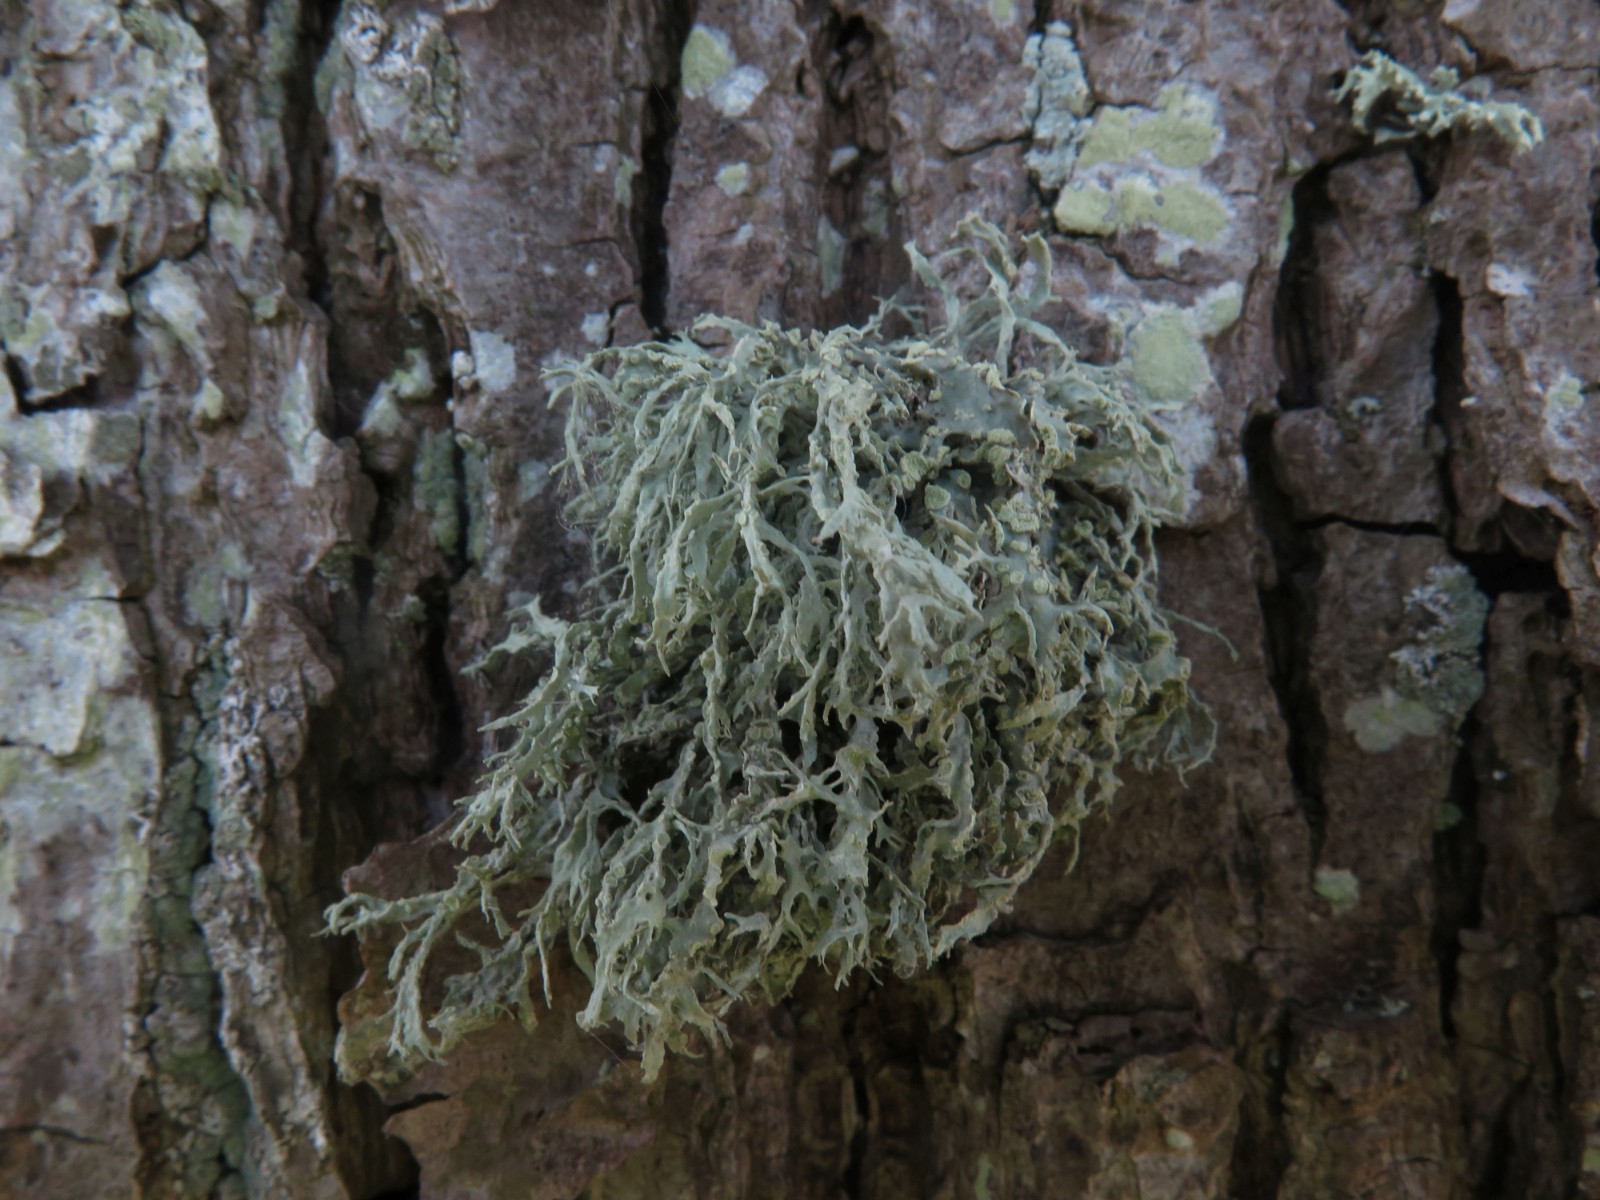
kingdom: Fungi
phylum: Ascomycota
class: Lecanoromycetes
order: Lecanorales
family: Ramalinaceae
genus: Ramalina
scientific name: Ramalina farinacea
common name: melet grenlav
